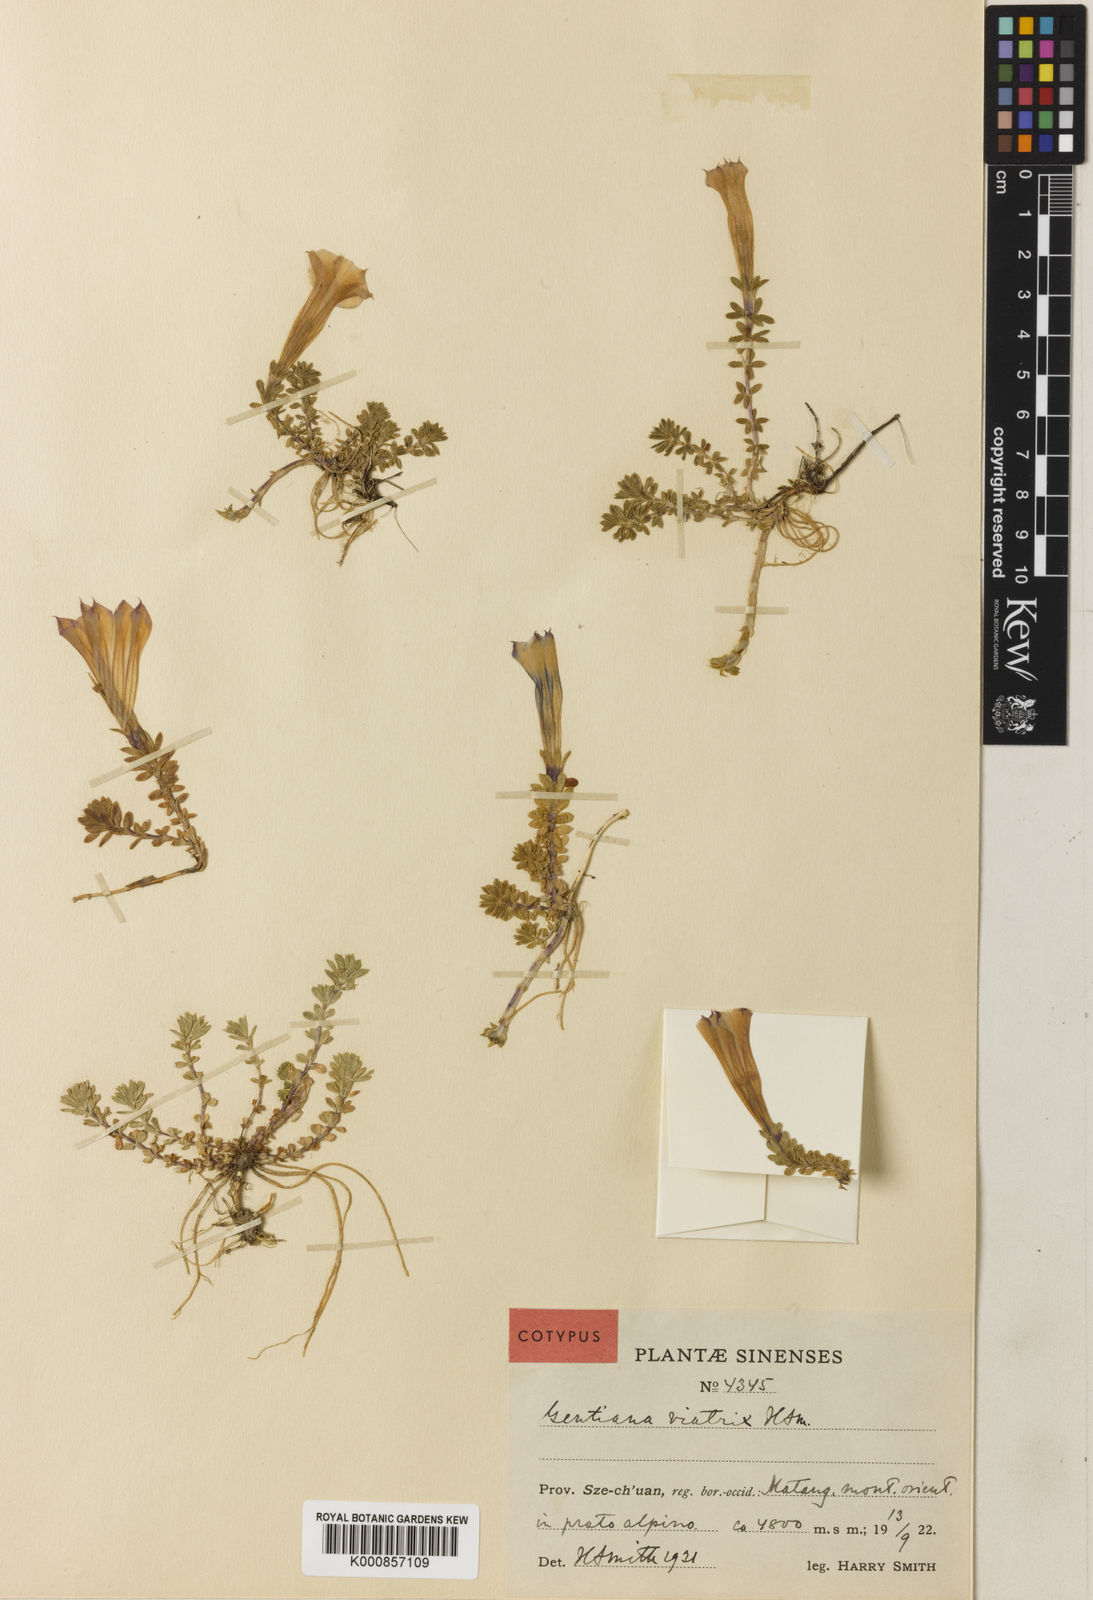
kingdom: Plantae
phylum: Tracheophyta
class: Magnoliopsida
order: Gentianales
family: Gentianaceae
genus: Gentiana
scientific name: Gentiana
